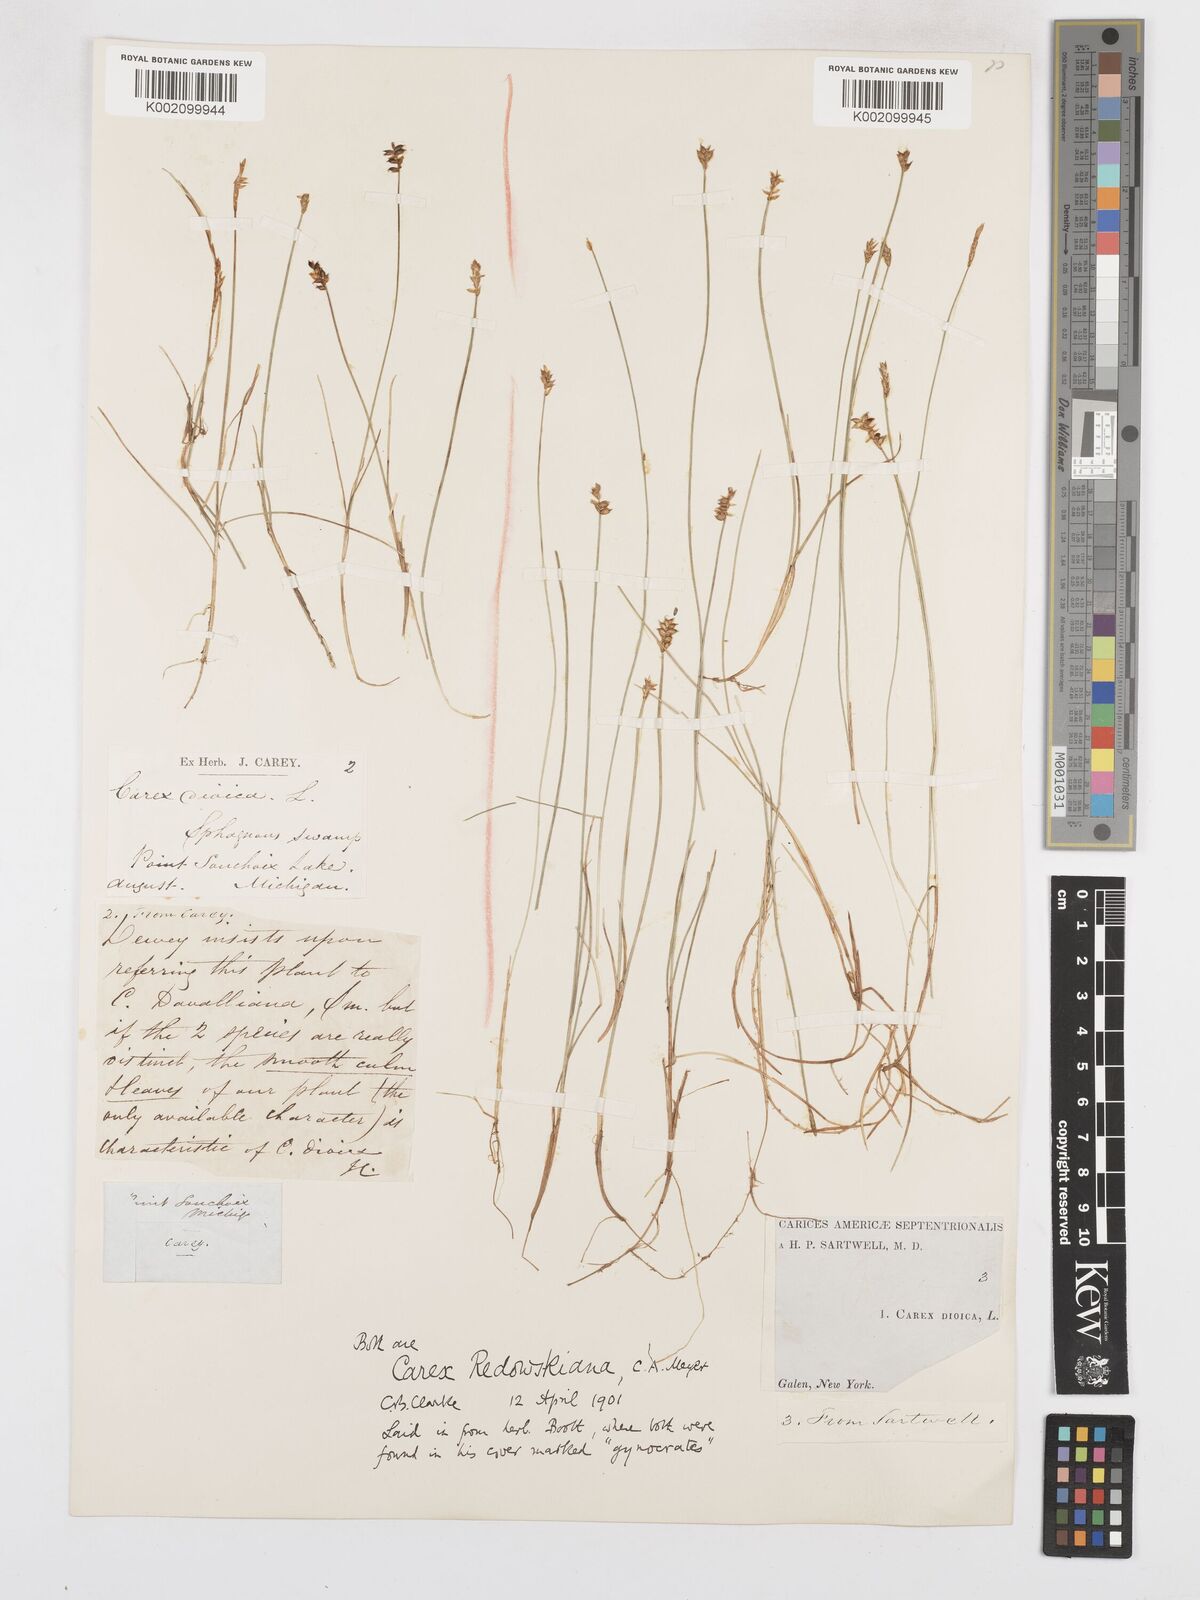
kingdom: Plantae
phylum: Tracheophyta
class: Liliopsida
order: Poales
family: Cyperaceae
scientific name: Cyperaceae
